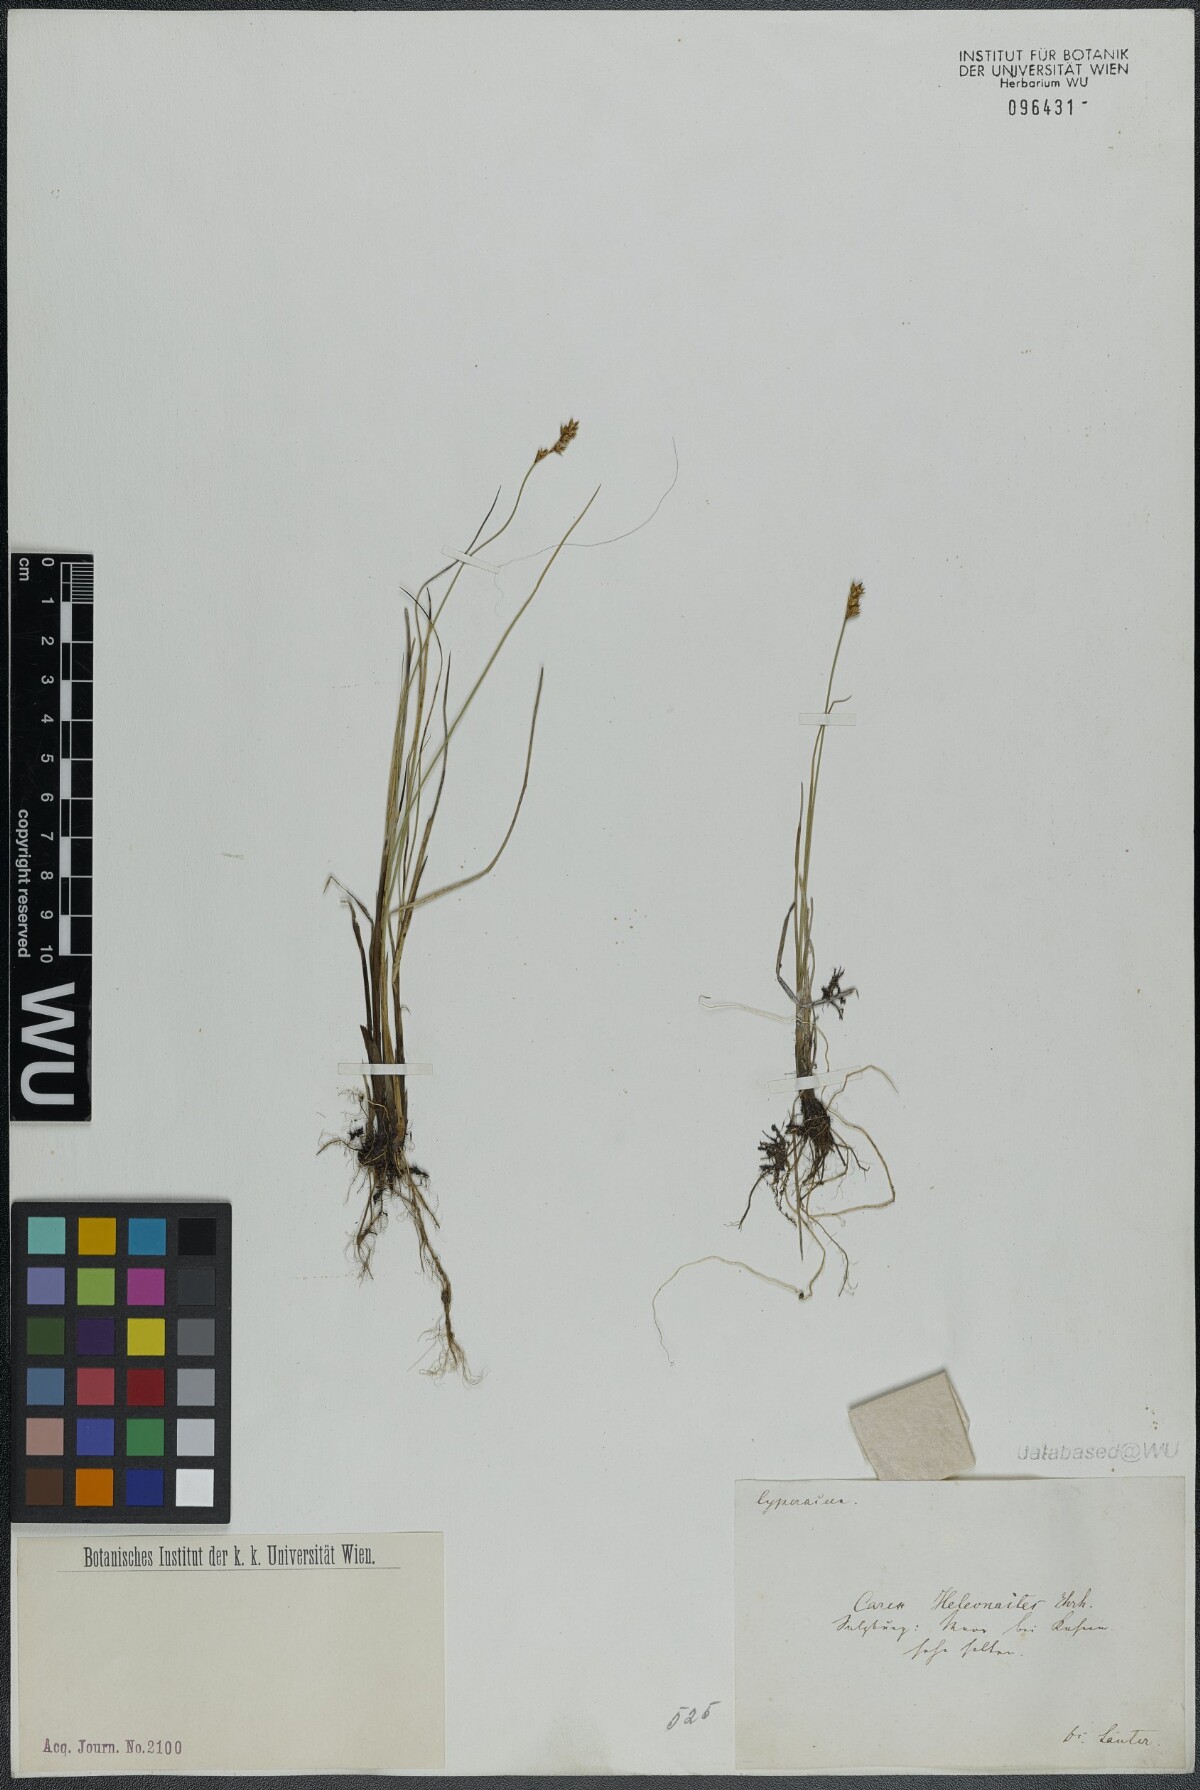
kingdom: Plantae
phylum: Tracheophyta
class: Liliopsida
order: Poales
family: Cyperaceae
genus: Carex
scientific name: Carex heleonastes
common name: Hudson bay sedge
